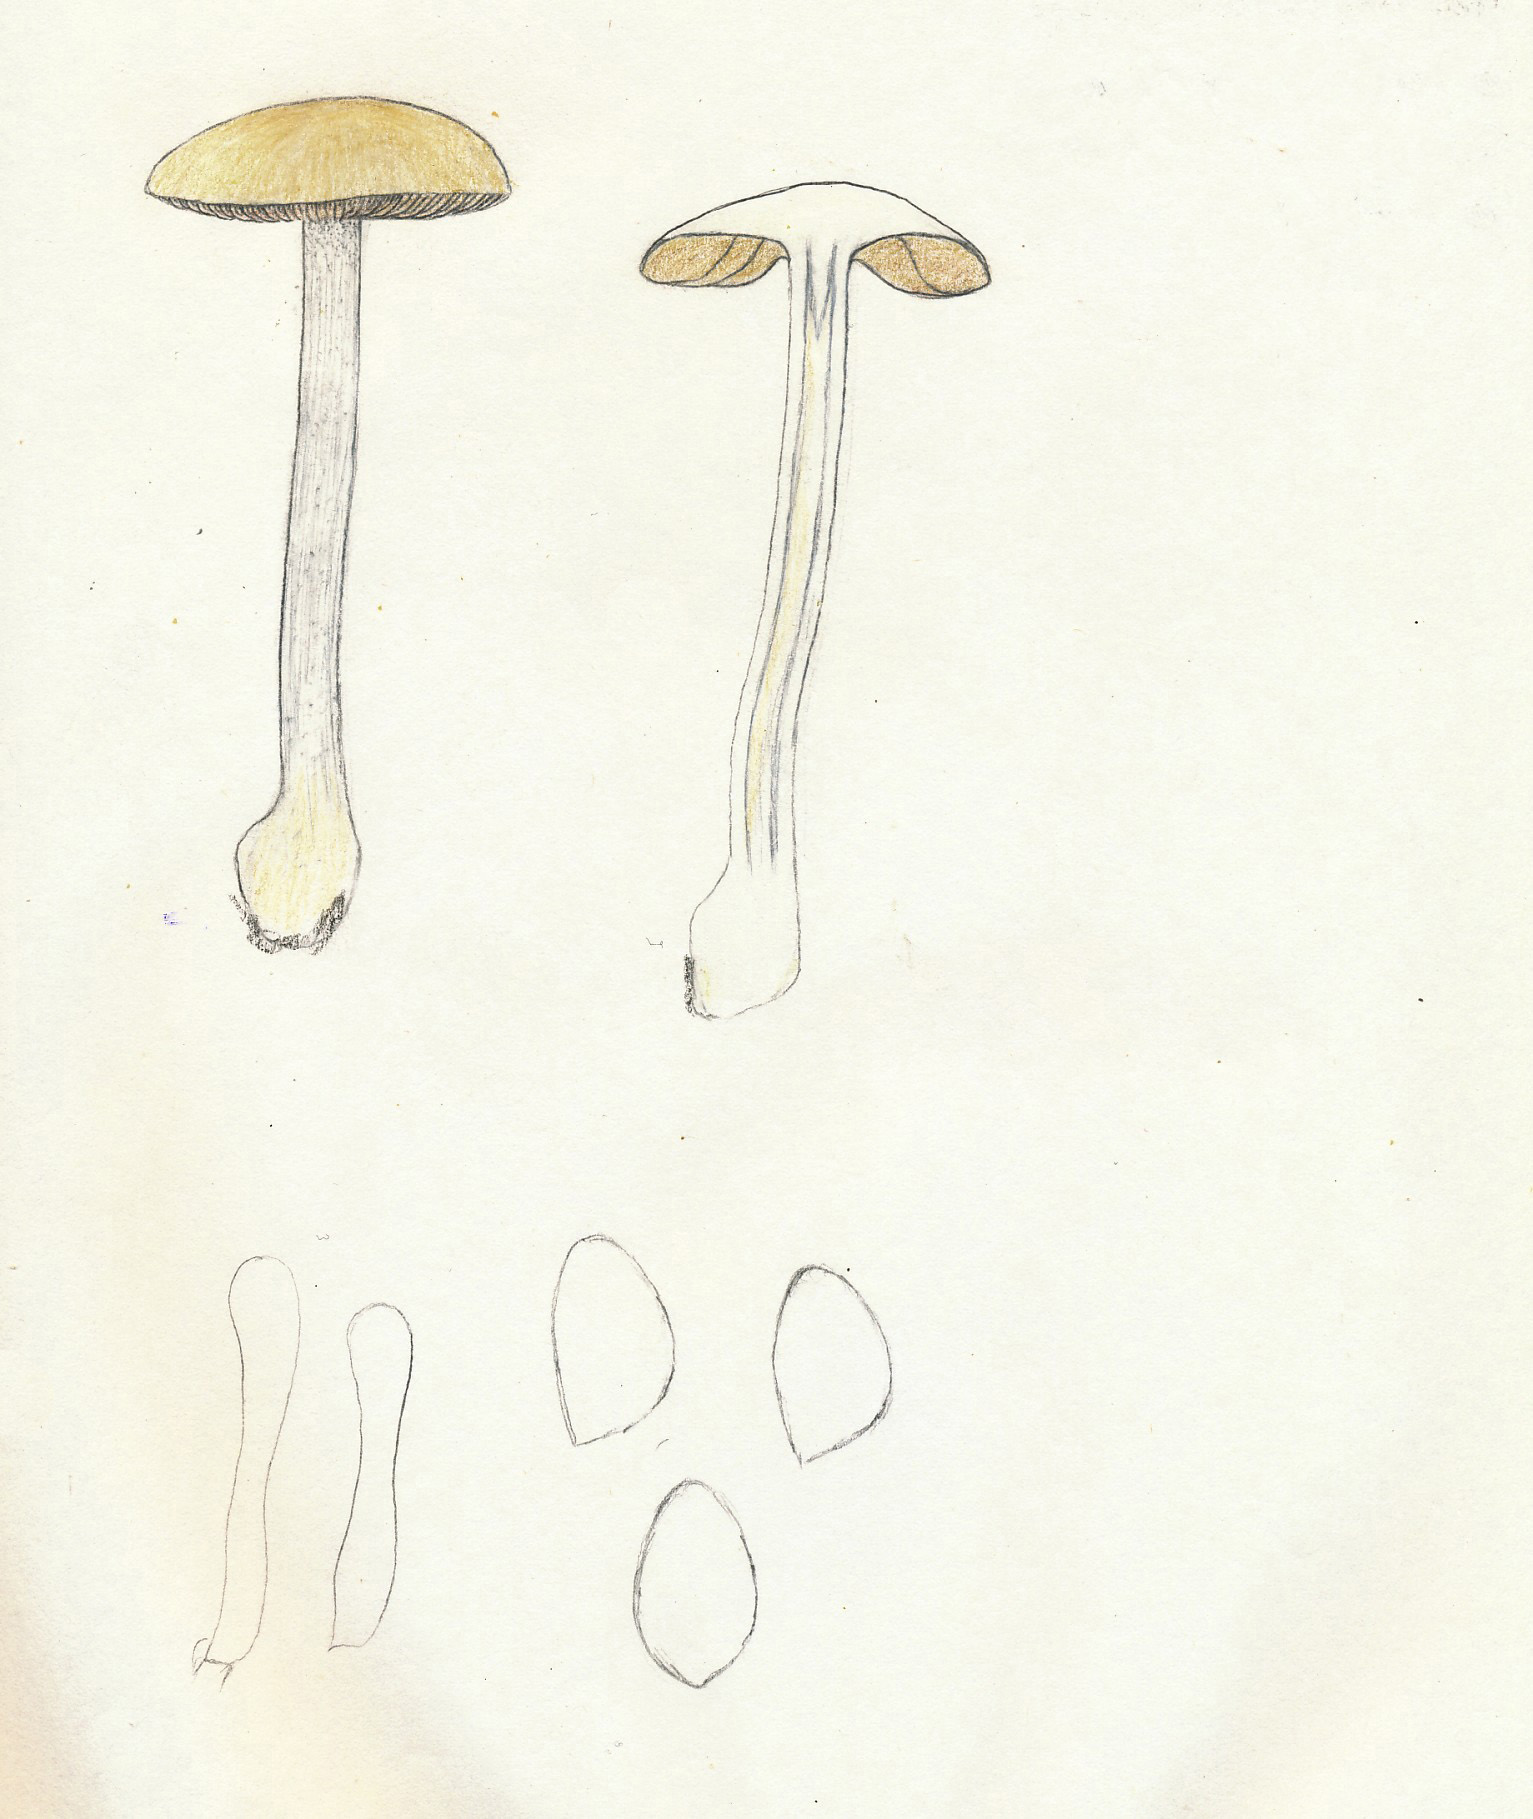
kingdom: Fungi
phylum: Basidiomycota
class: Agaricomycetes
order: Agaricales
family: Hymenogastraceae
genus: Hebeloma
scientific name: Hebeloma album
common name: skør tåreblad
